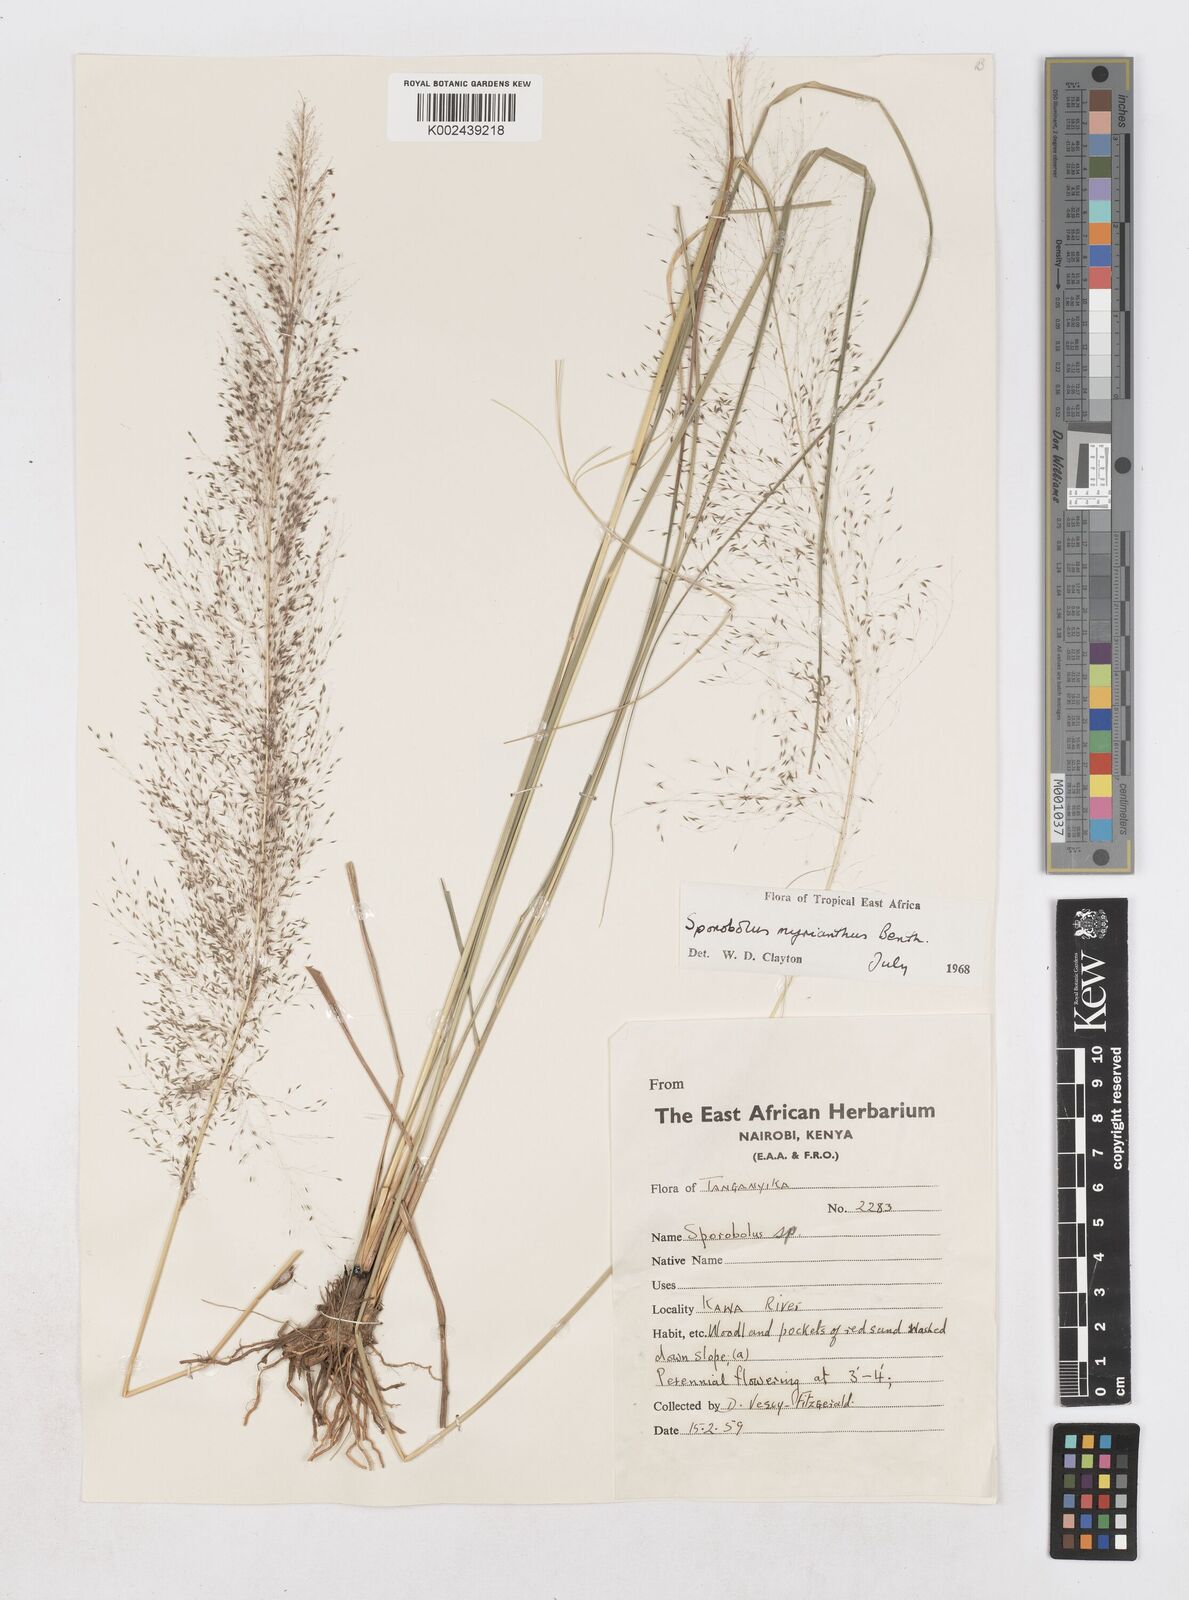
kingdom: Plantae
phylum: Tracheophyta
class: Liliopsida
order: Poales
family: Poaceae
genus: Sporobolus
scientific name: Sporobolus myrianthus
